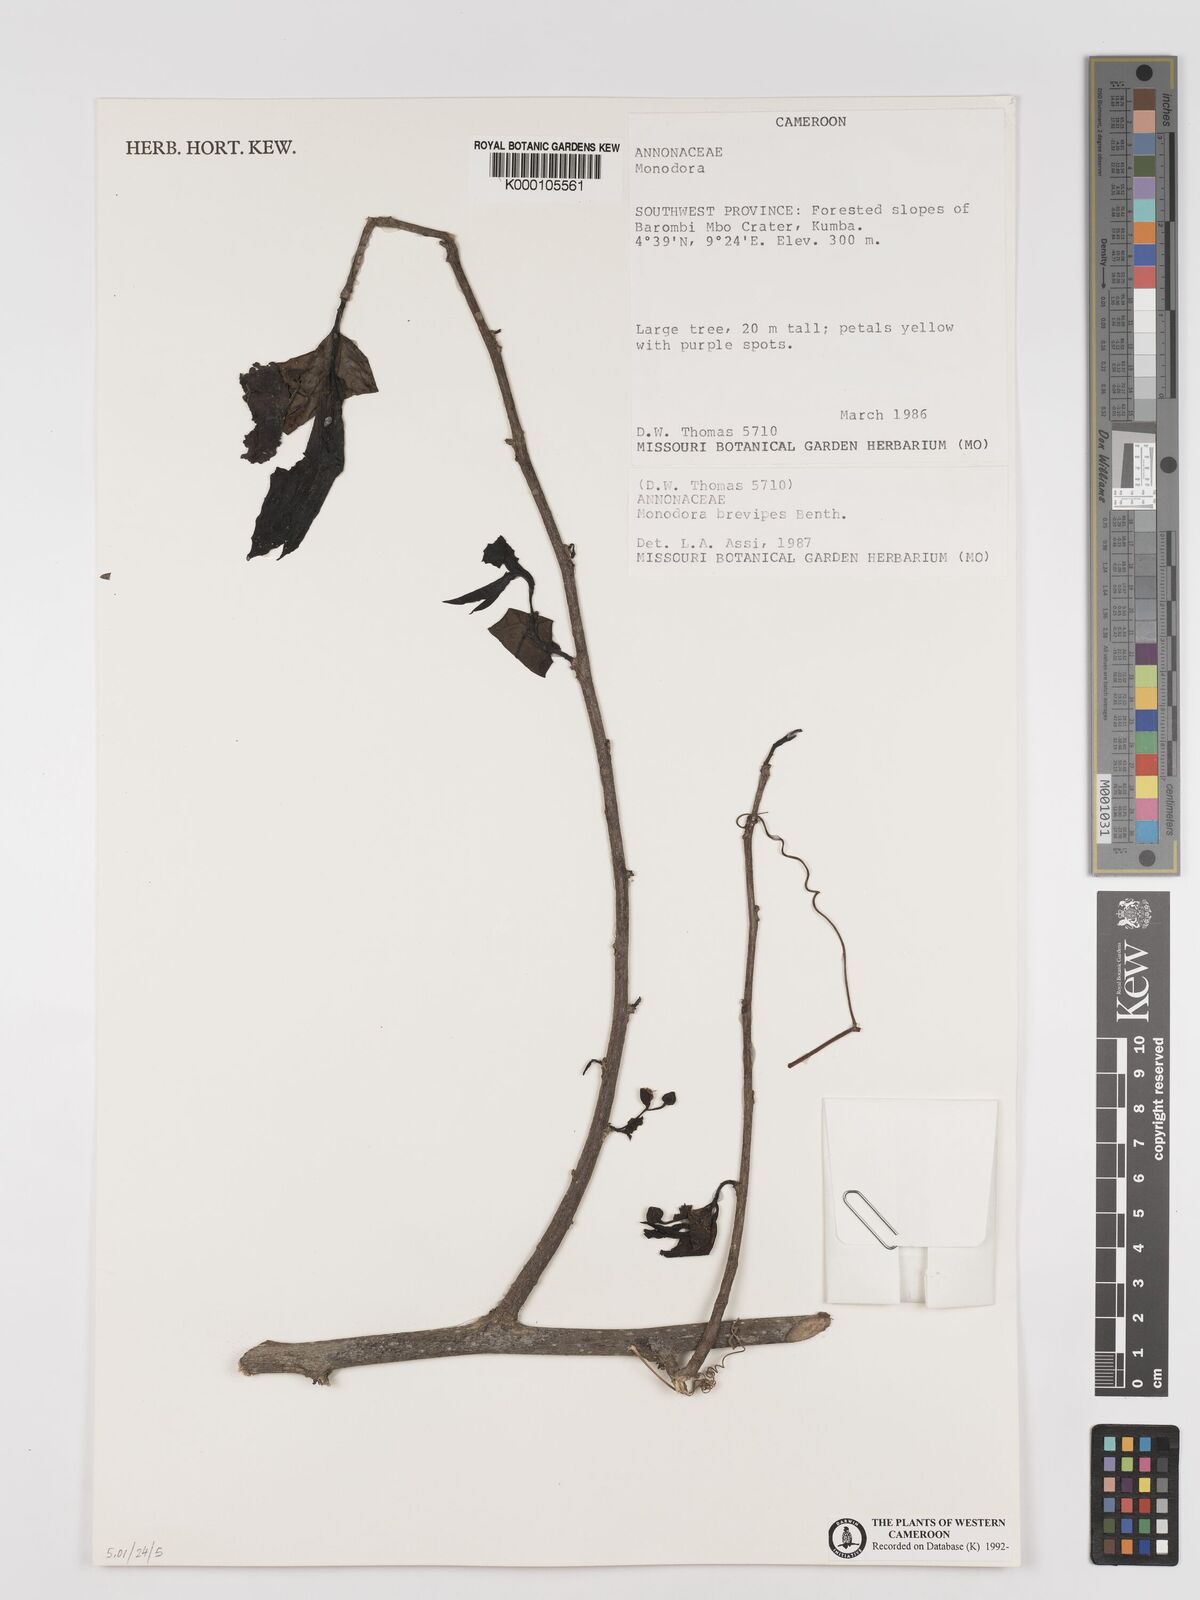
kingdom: Plantae
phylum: Tracheophyta
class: Magnoliopsida
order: Magnoliales
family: Annonaceae
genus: Monodora
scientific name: Monodora undulata
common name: Yellow-flower-nutmeg
